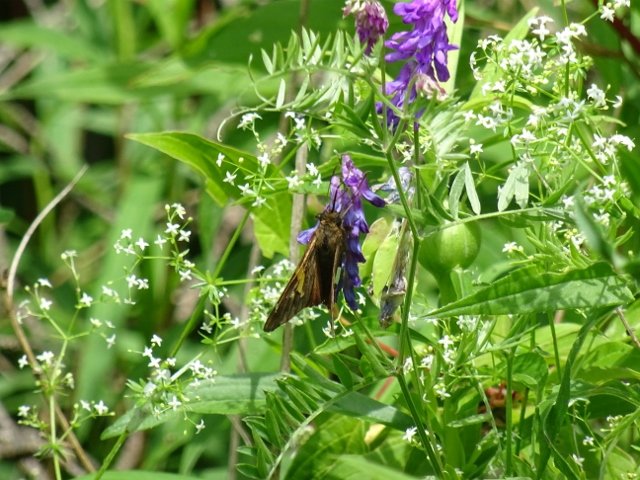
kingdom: Animalia
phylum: Arthropoda
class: Insecta
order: Lepidoptera
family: Hesperiidae
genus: Epargyreus
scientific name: Epargyreus clarus
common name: Silver-spotted Skipper
